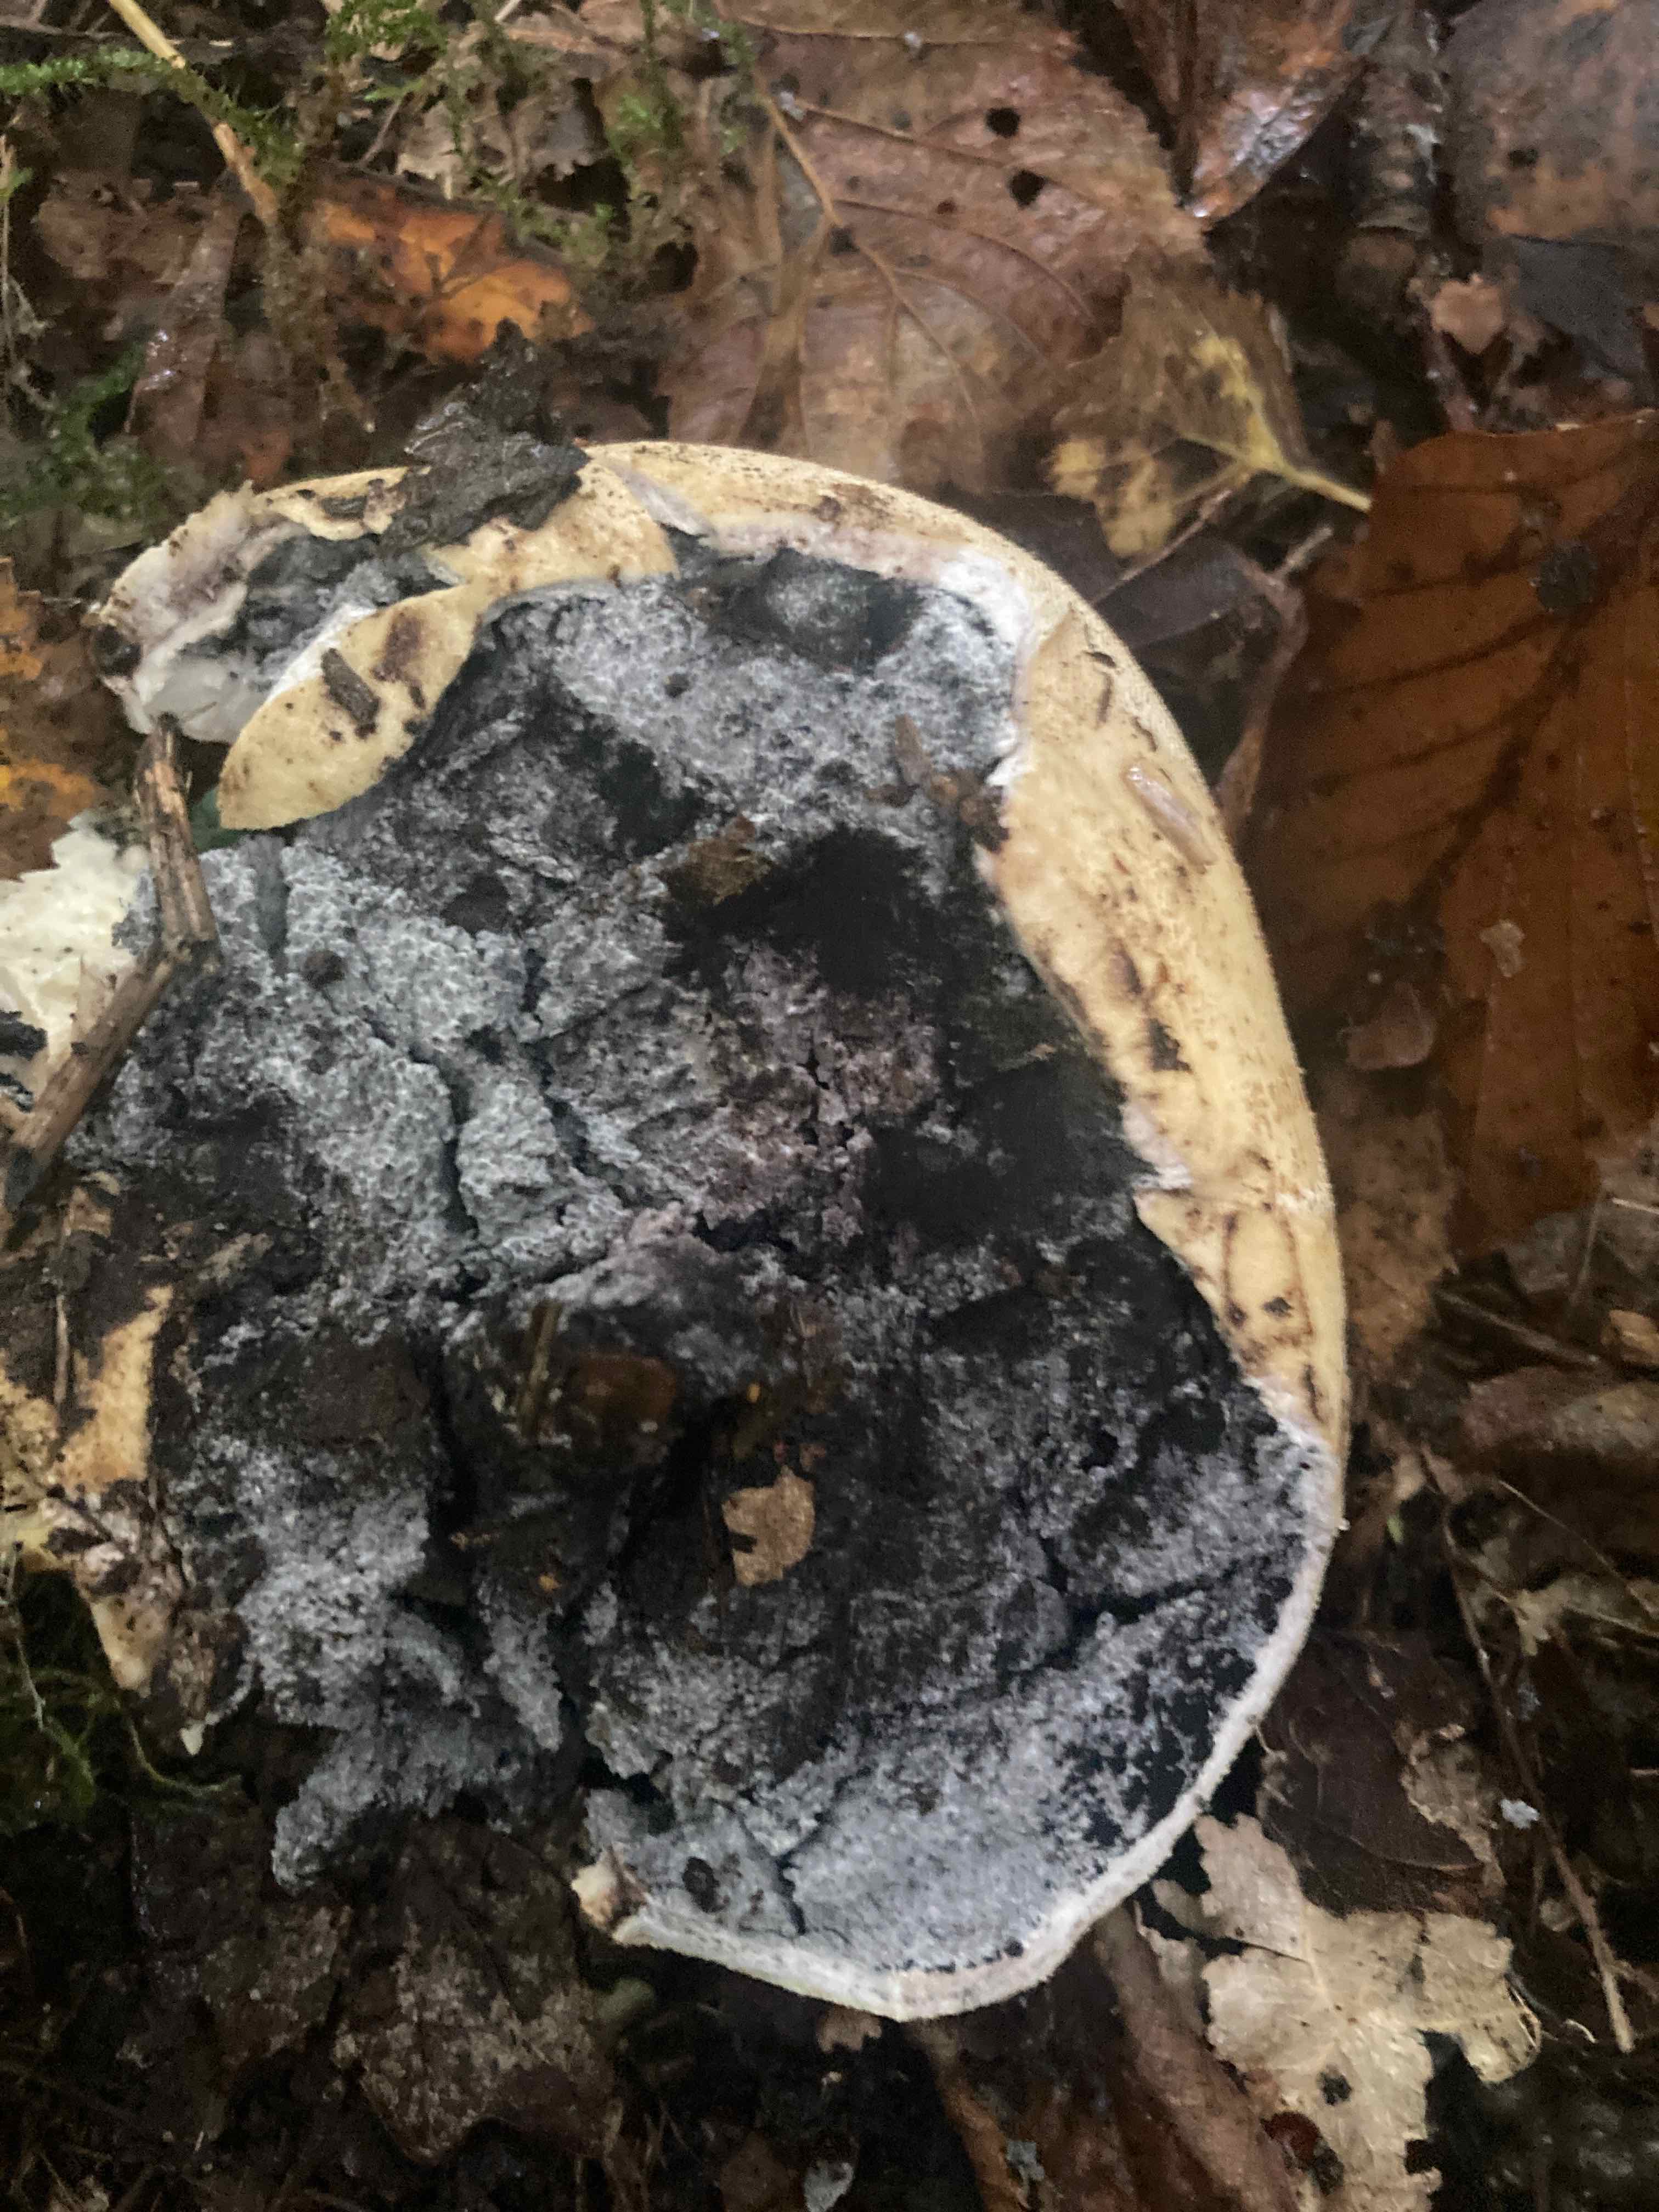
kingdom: Fungi
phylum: Basidiomycota
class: Agaricomycetes
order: Boletales
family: Sclerodermataceae
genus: Scleroderma
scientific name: Scleroderma
